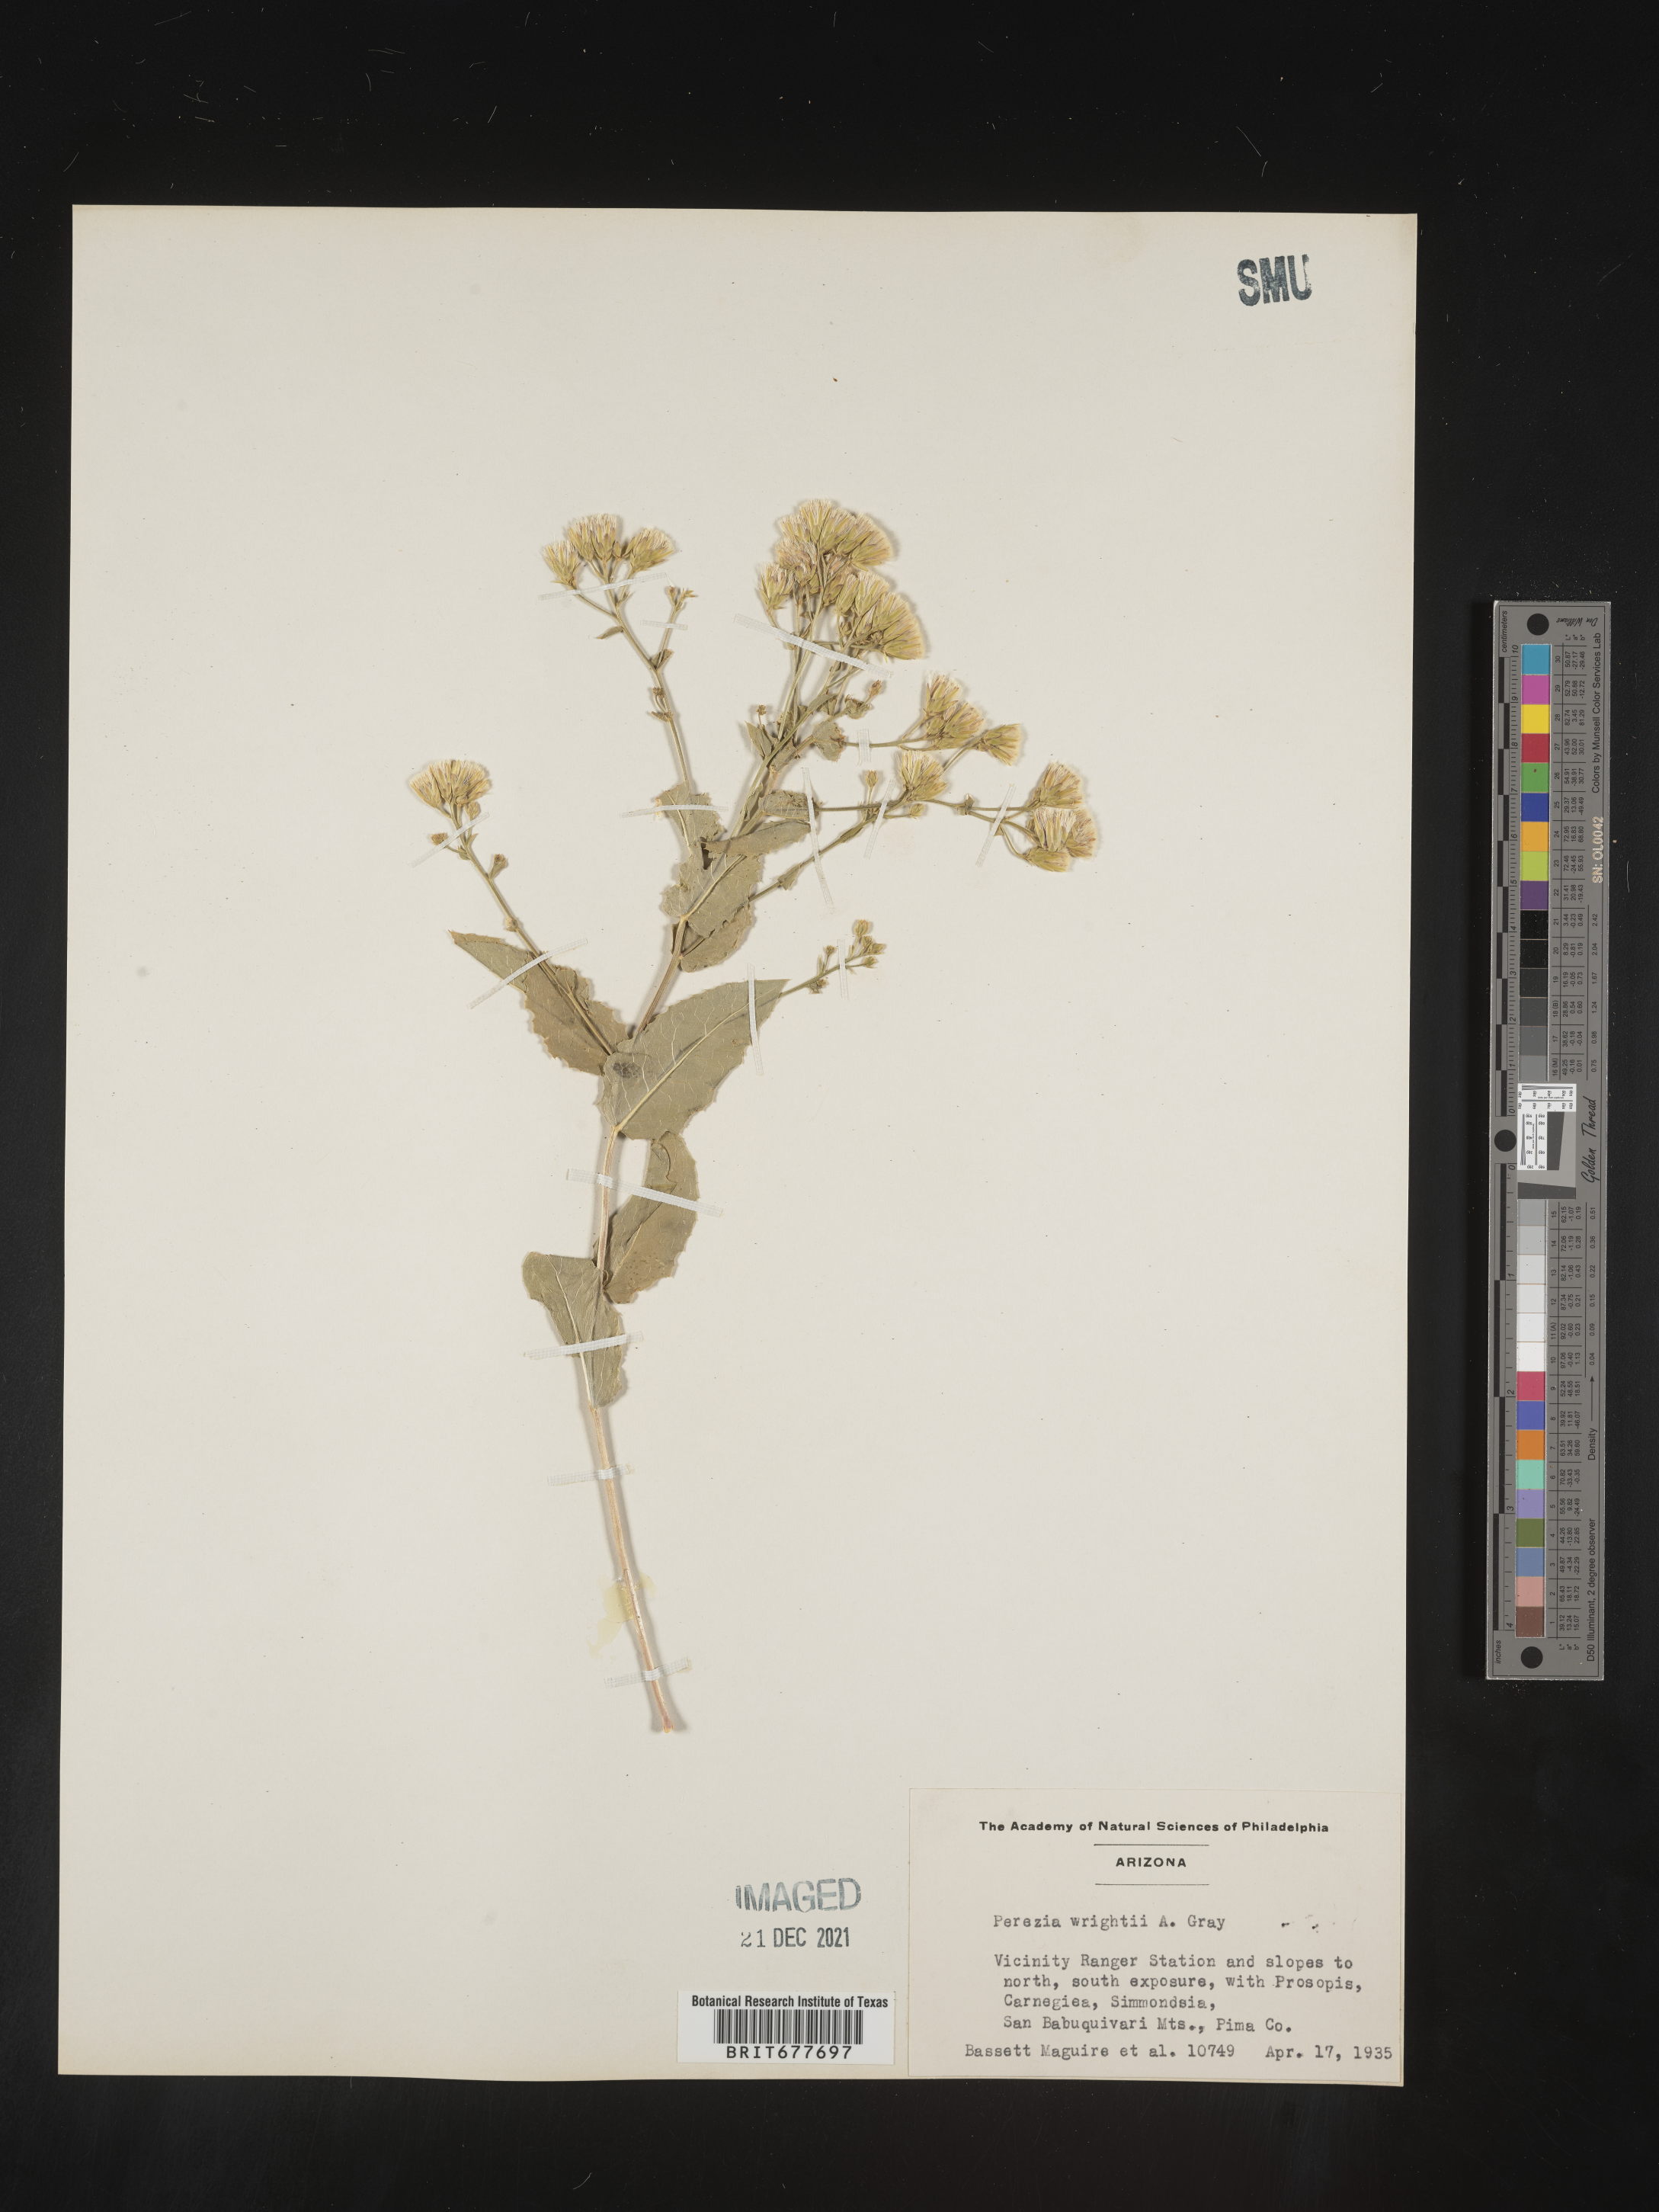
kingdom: Plantae
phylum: Tracheophyta
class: Magnoliopsida
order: Asterales
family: Asteraceae
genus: Perezia
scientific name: Perezia
